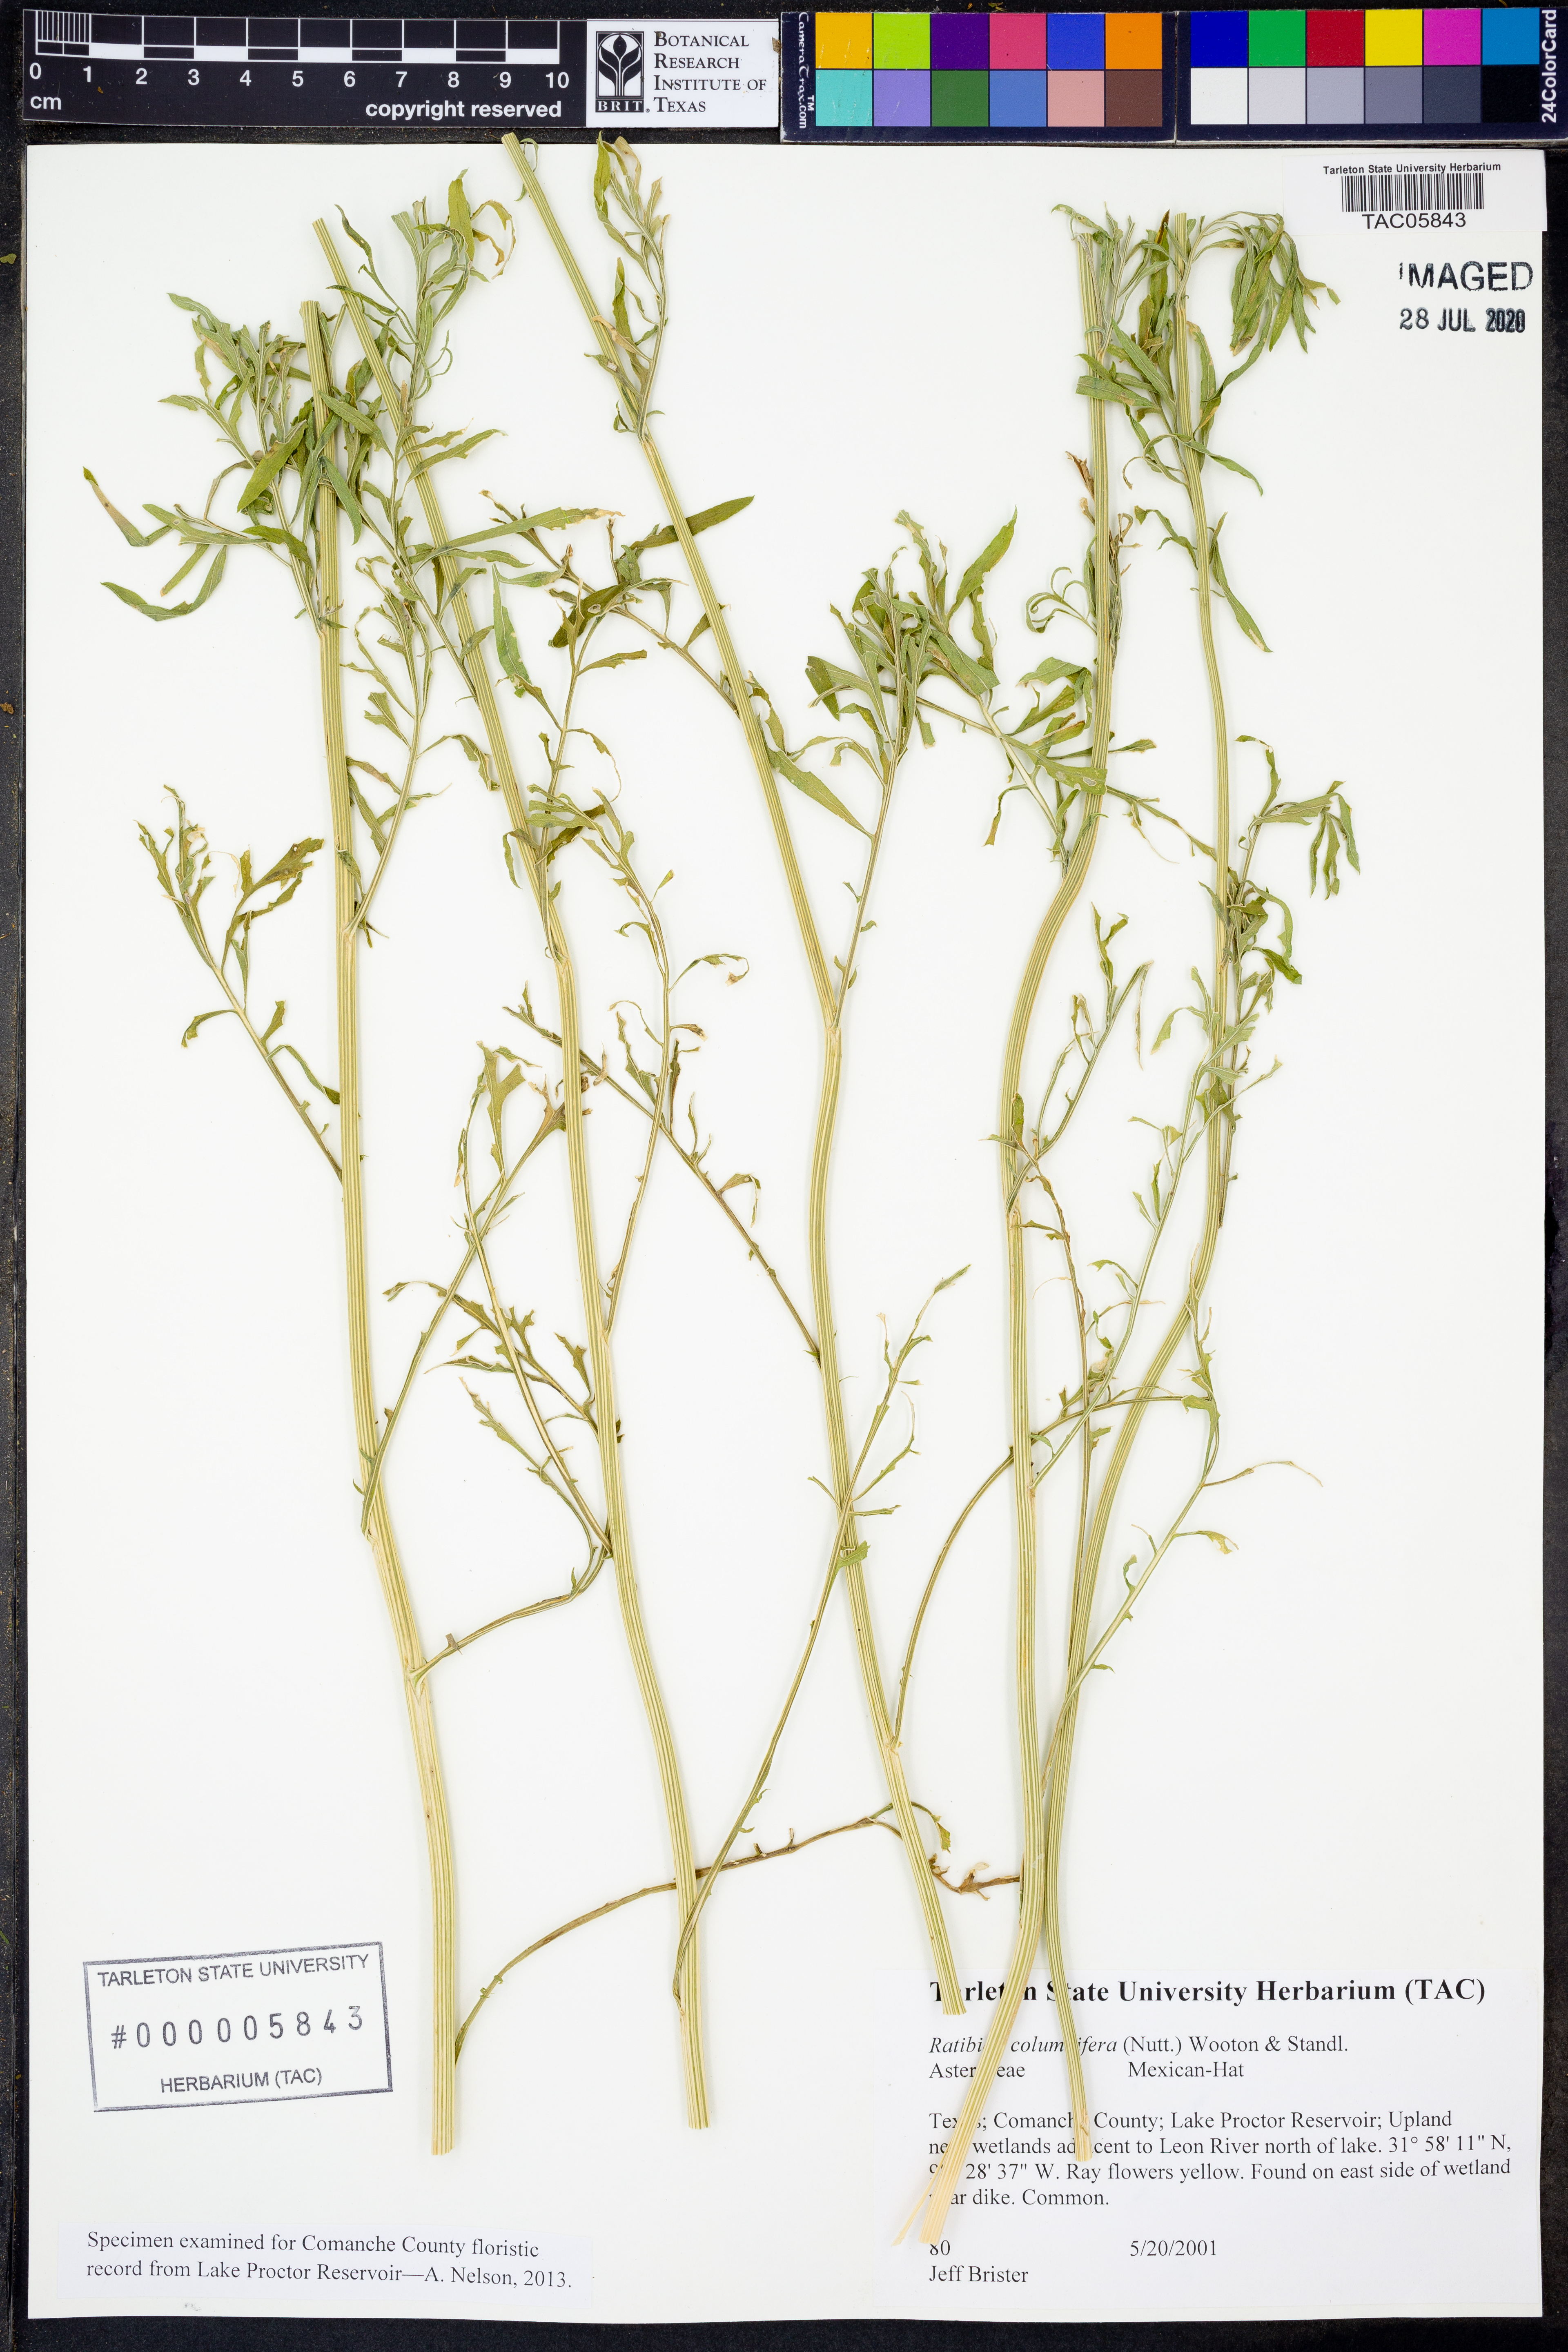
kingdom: Plantae
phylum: Tracheophyta
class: Magnoliopsida
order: Asterales
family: Asteraceae
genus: Ratibida
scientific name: Ratibida columnifera
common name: Prairie coneflower
